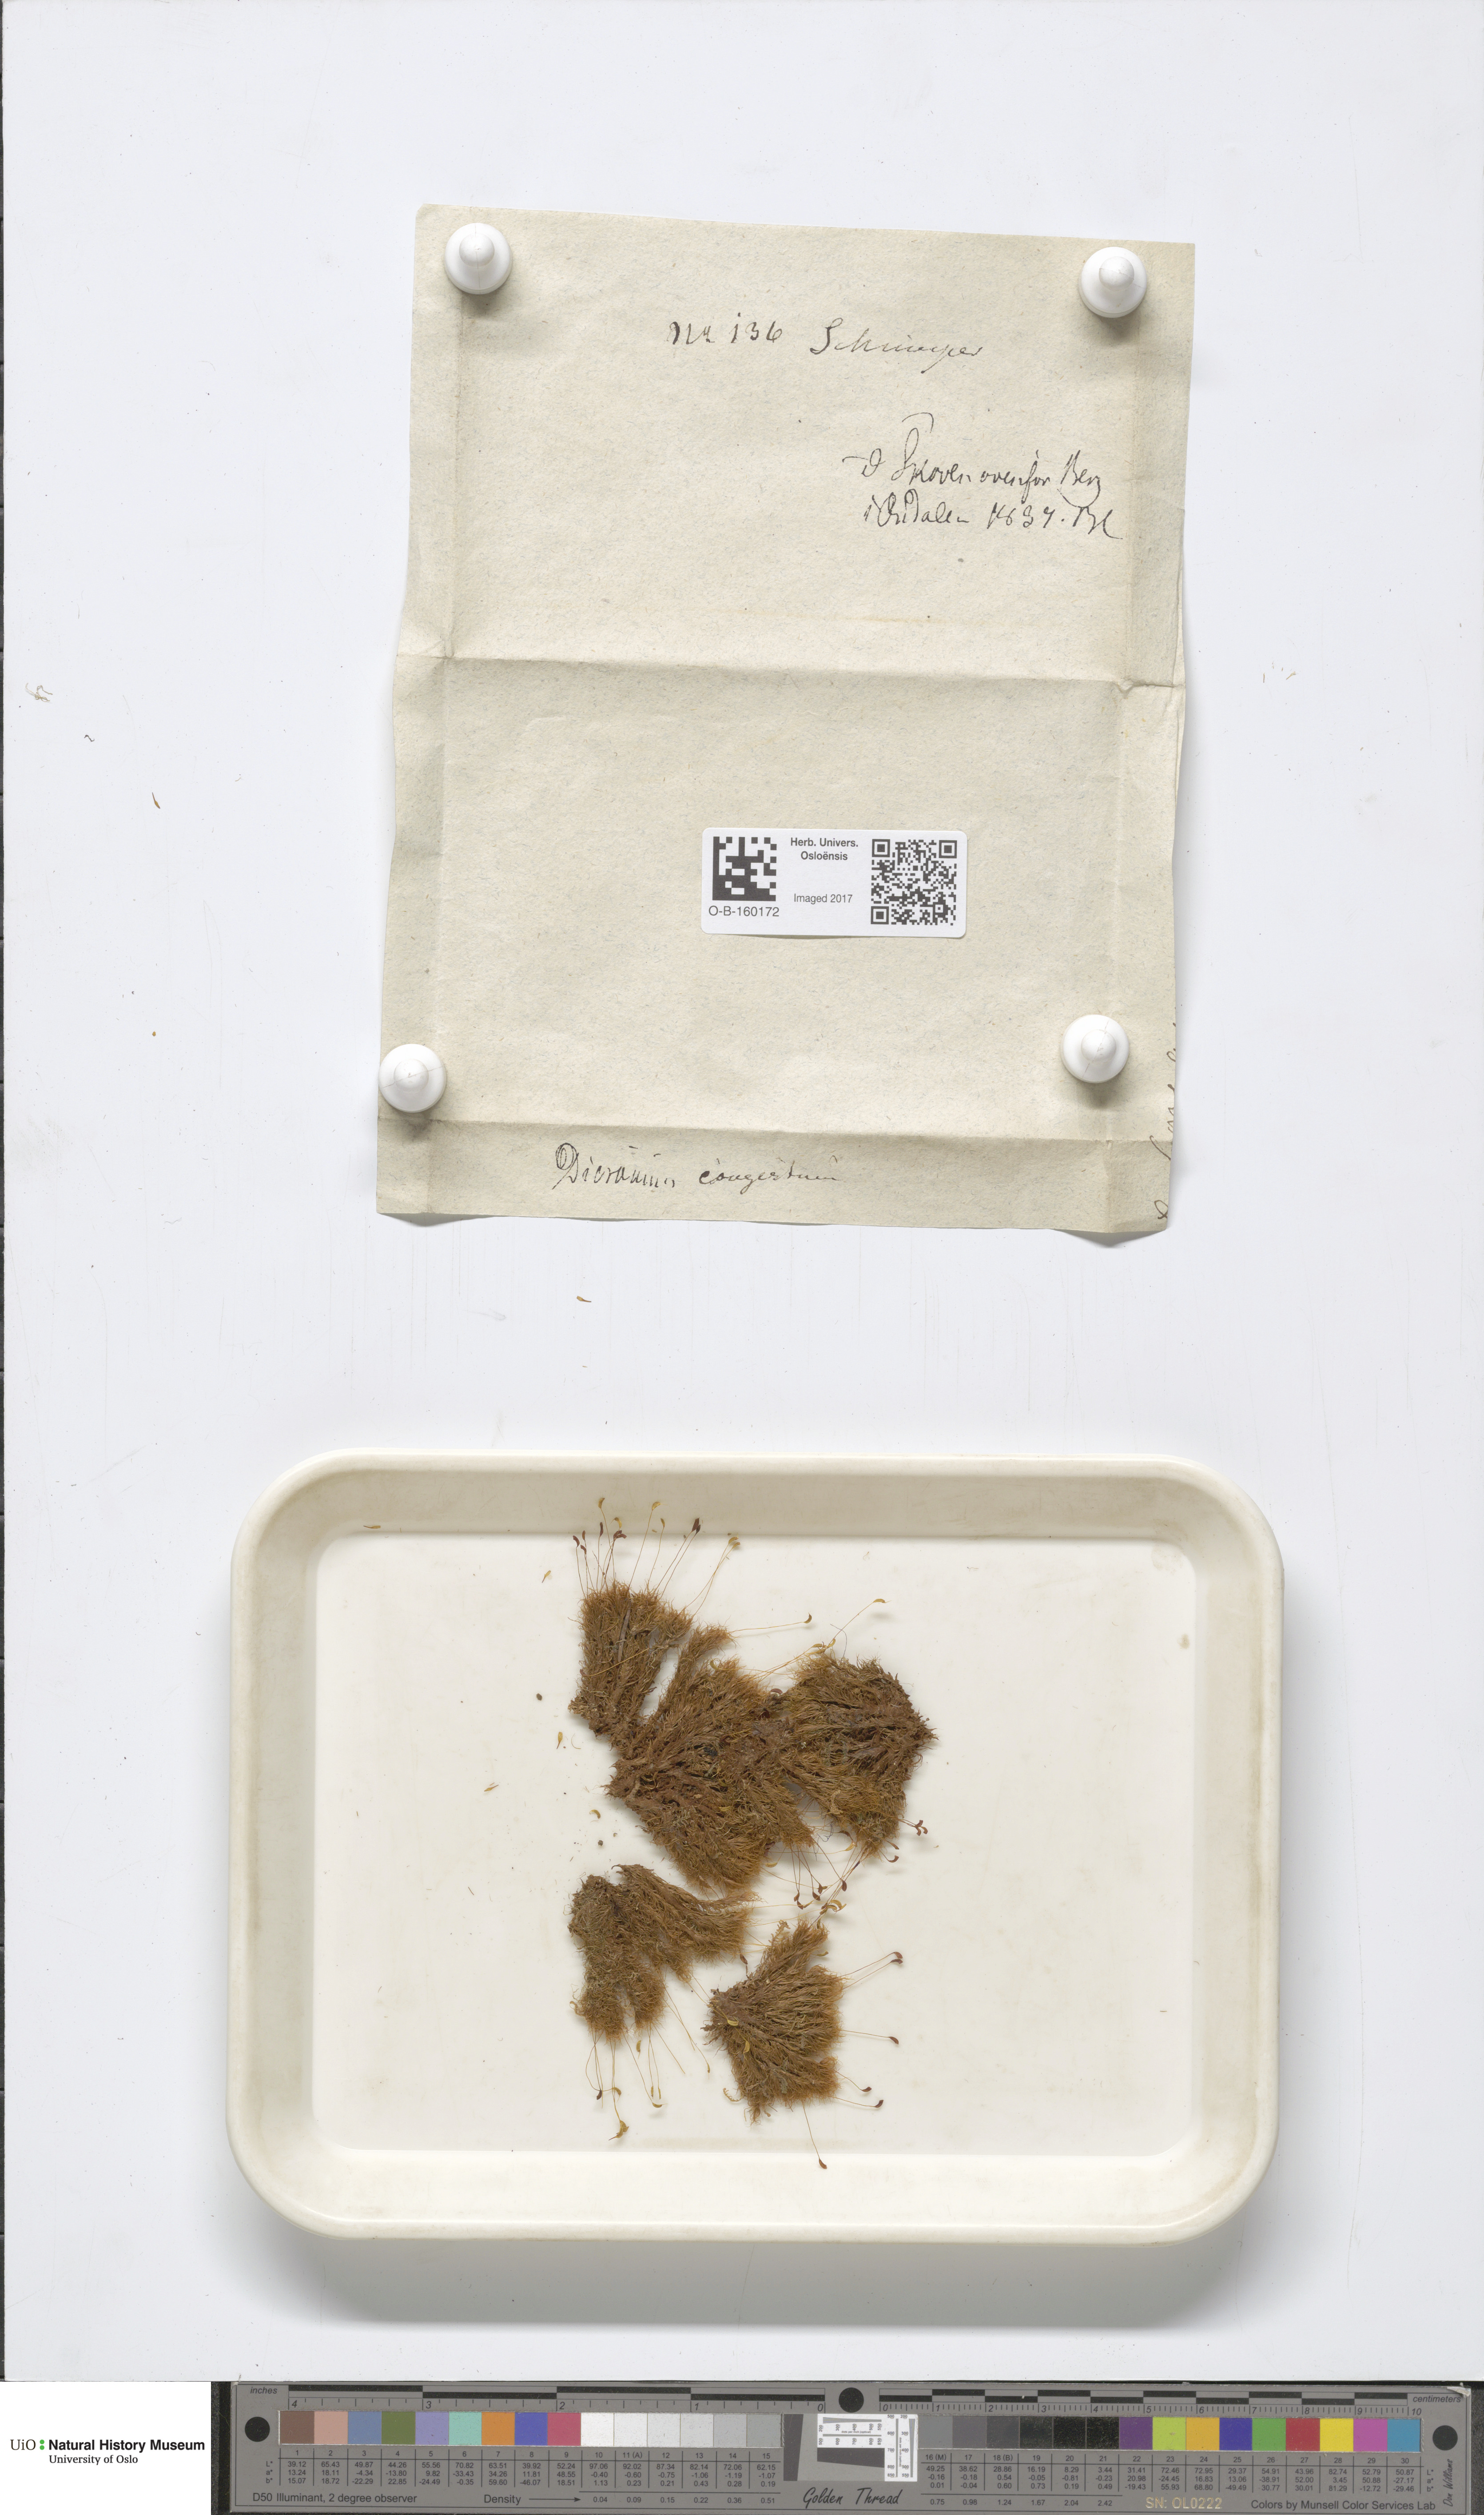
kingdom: Plantae
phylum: Bryophyta
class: Bryopsida
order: Dicranales
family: Dicranaceae
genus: Dicranum
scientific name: Dicranum flexicaule
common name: Bendy heron s-bill moss
